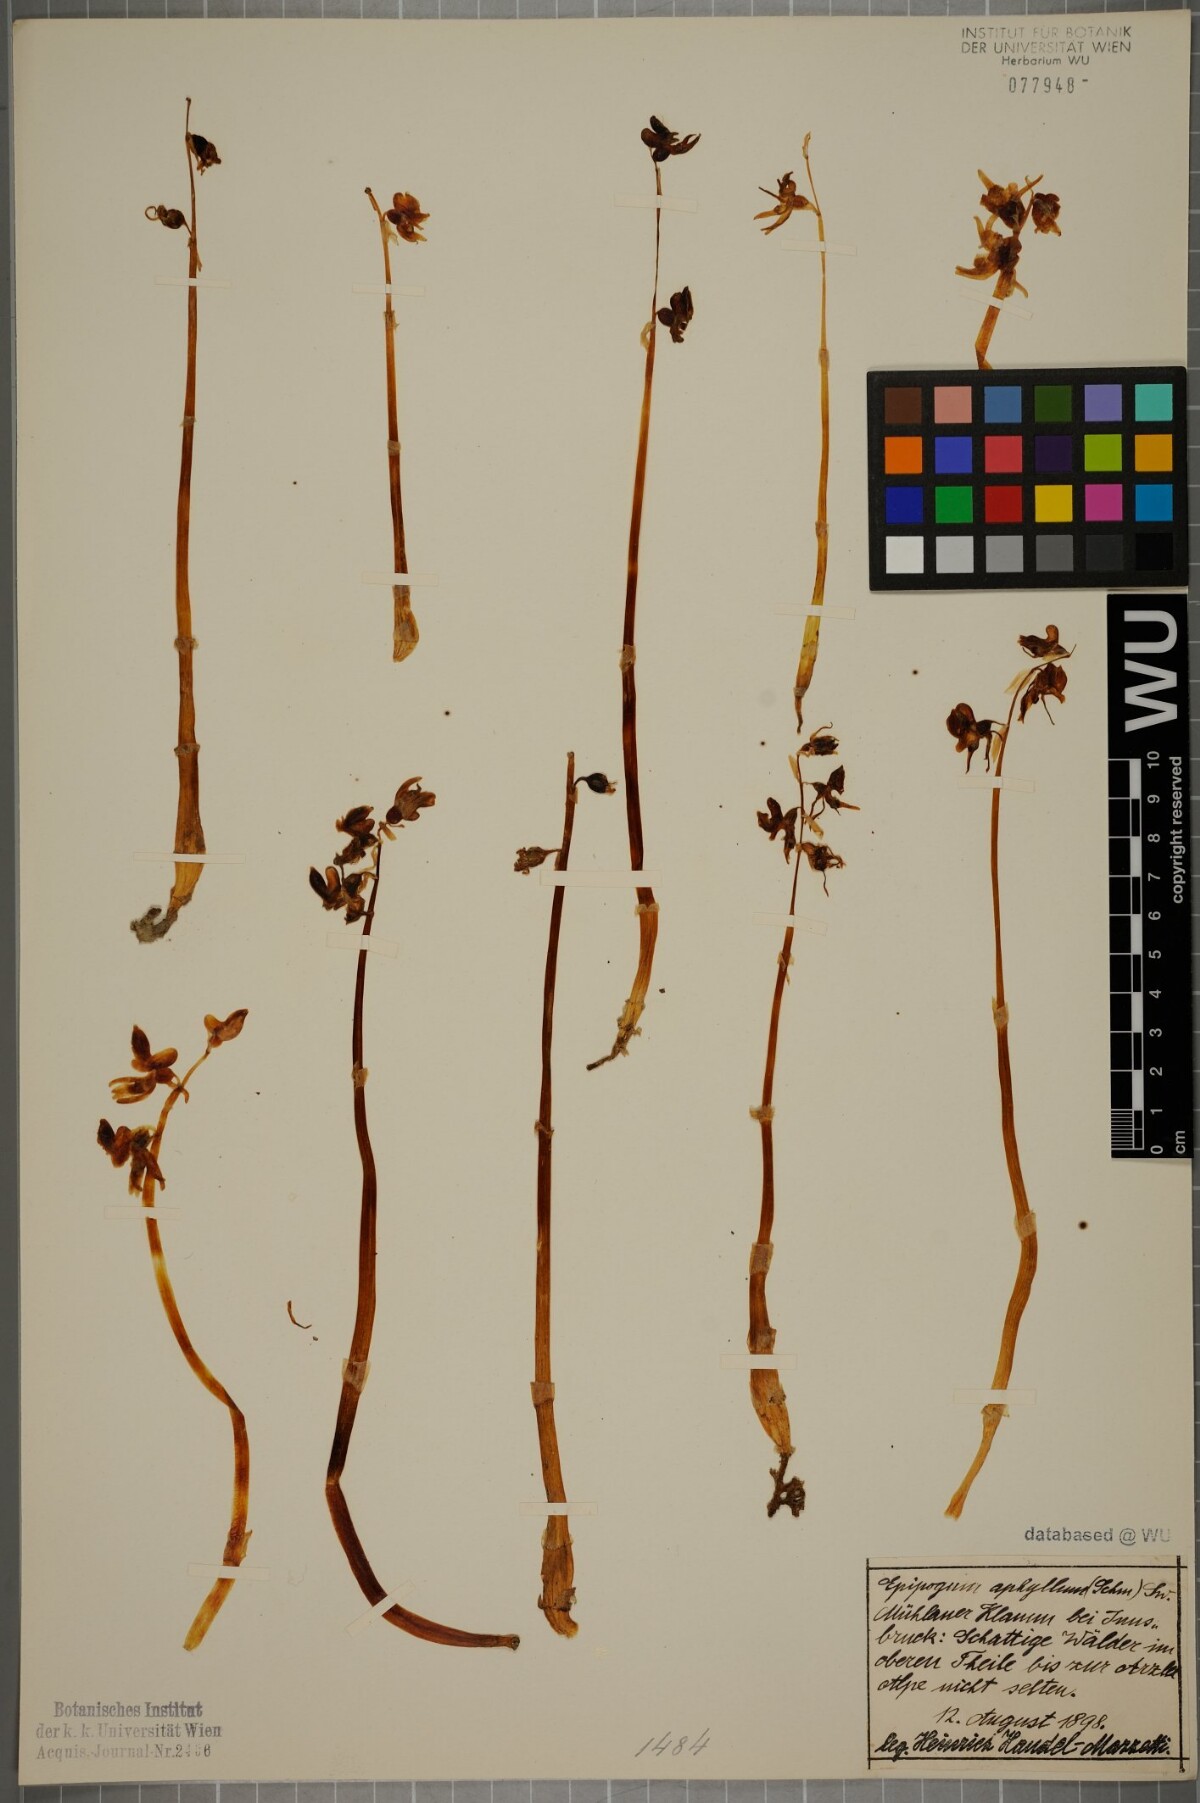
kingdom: Plantae
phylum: Tracheophyta
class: Liliopsida
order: Asparagales
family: Orchidaceae
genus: Epipogium
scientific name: Epipogium aphyllum
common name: Ghost orchid
